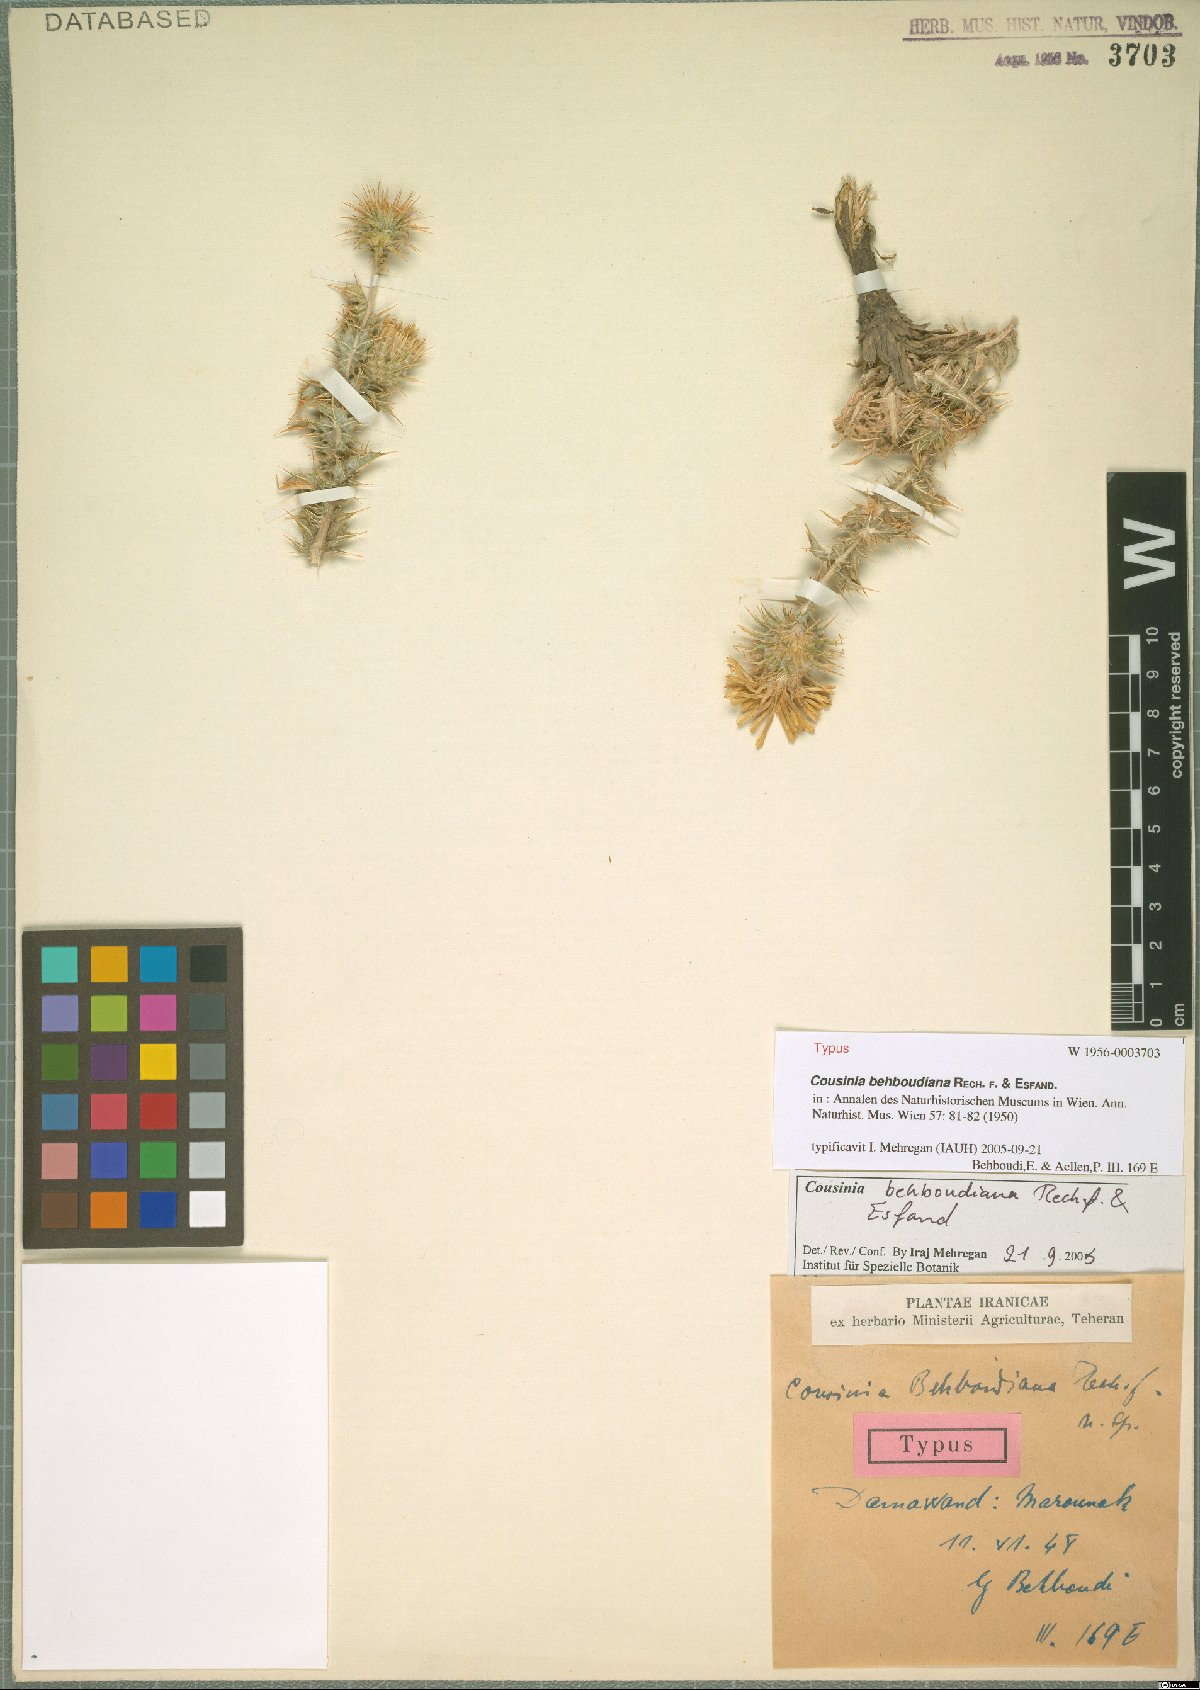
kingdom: Plantae
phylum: Tracheophyta
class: Magnoliopsida
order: Asterales
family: Asteraceae
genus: Cousinia
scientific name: Cousinia calocephala
